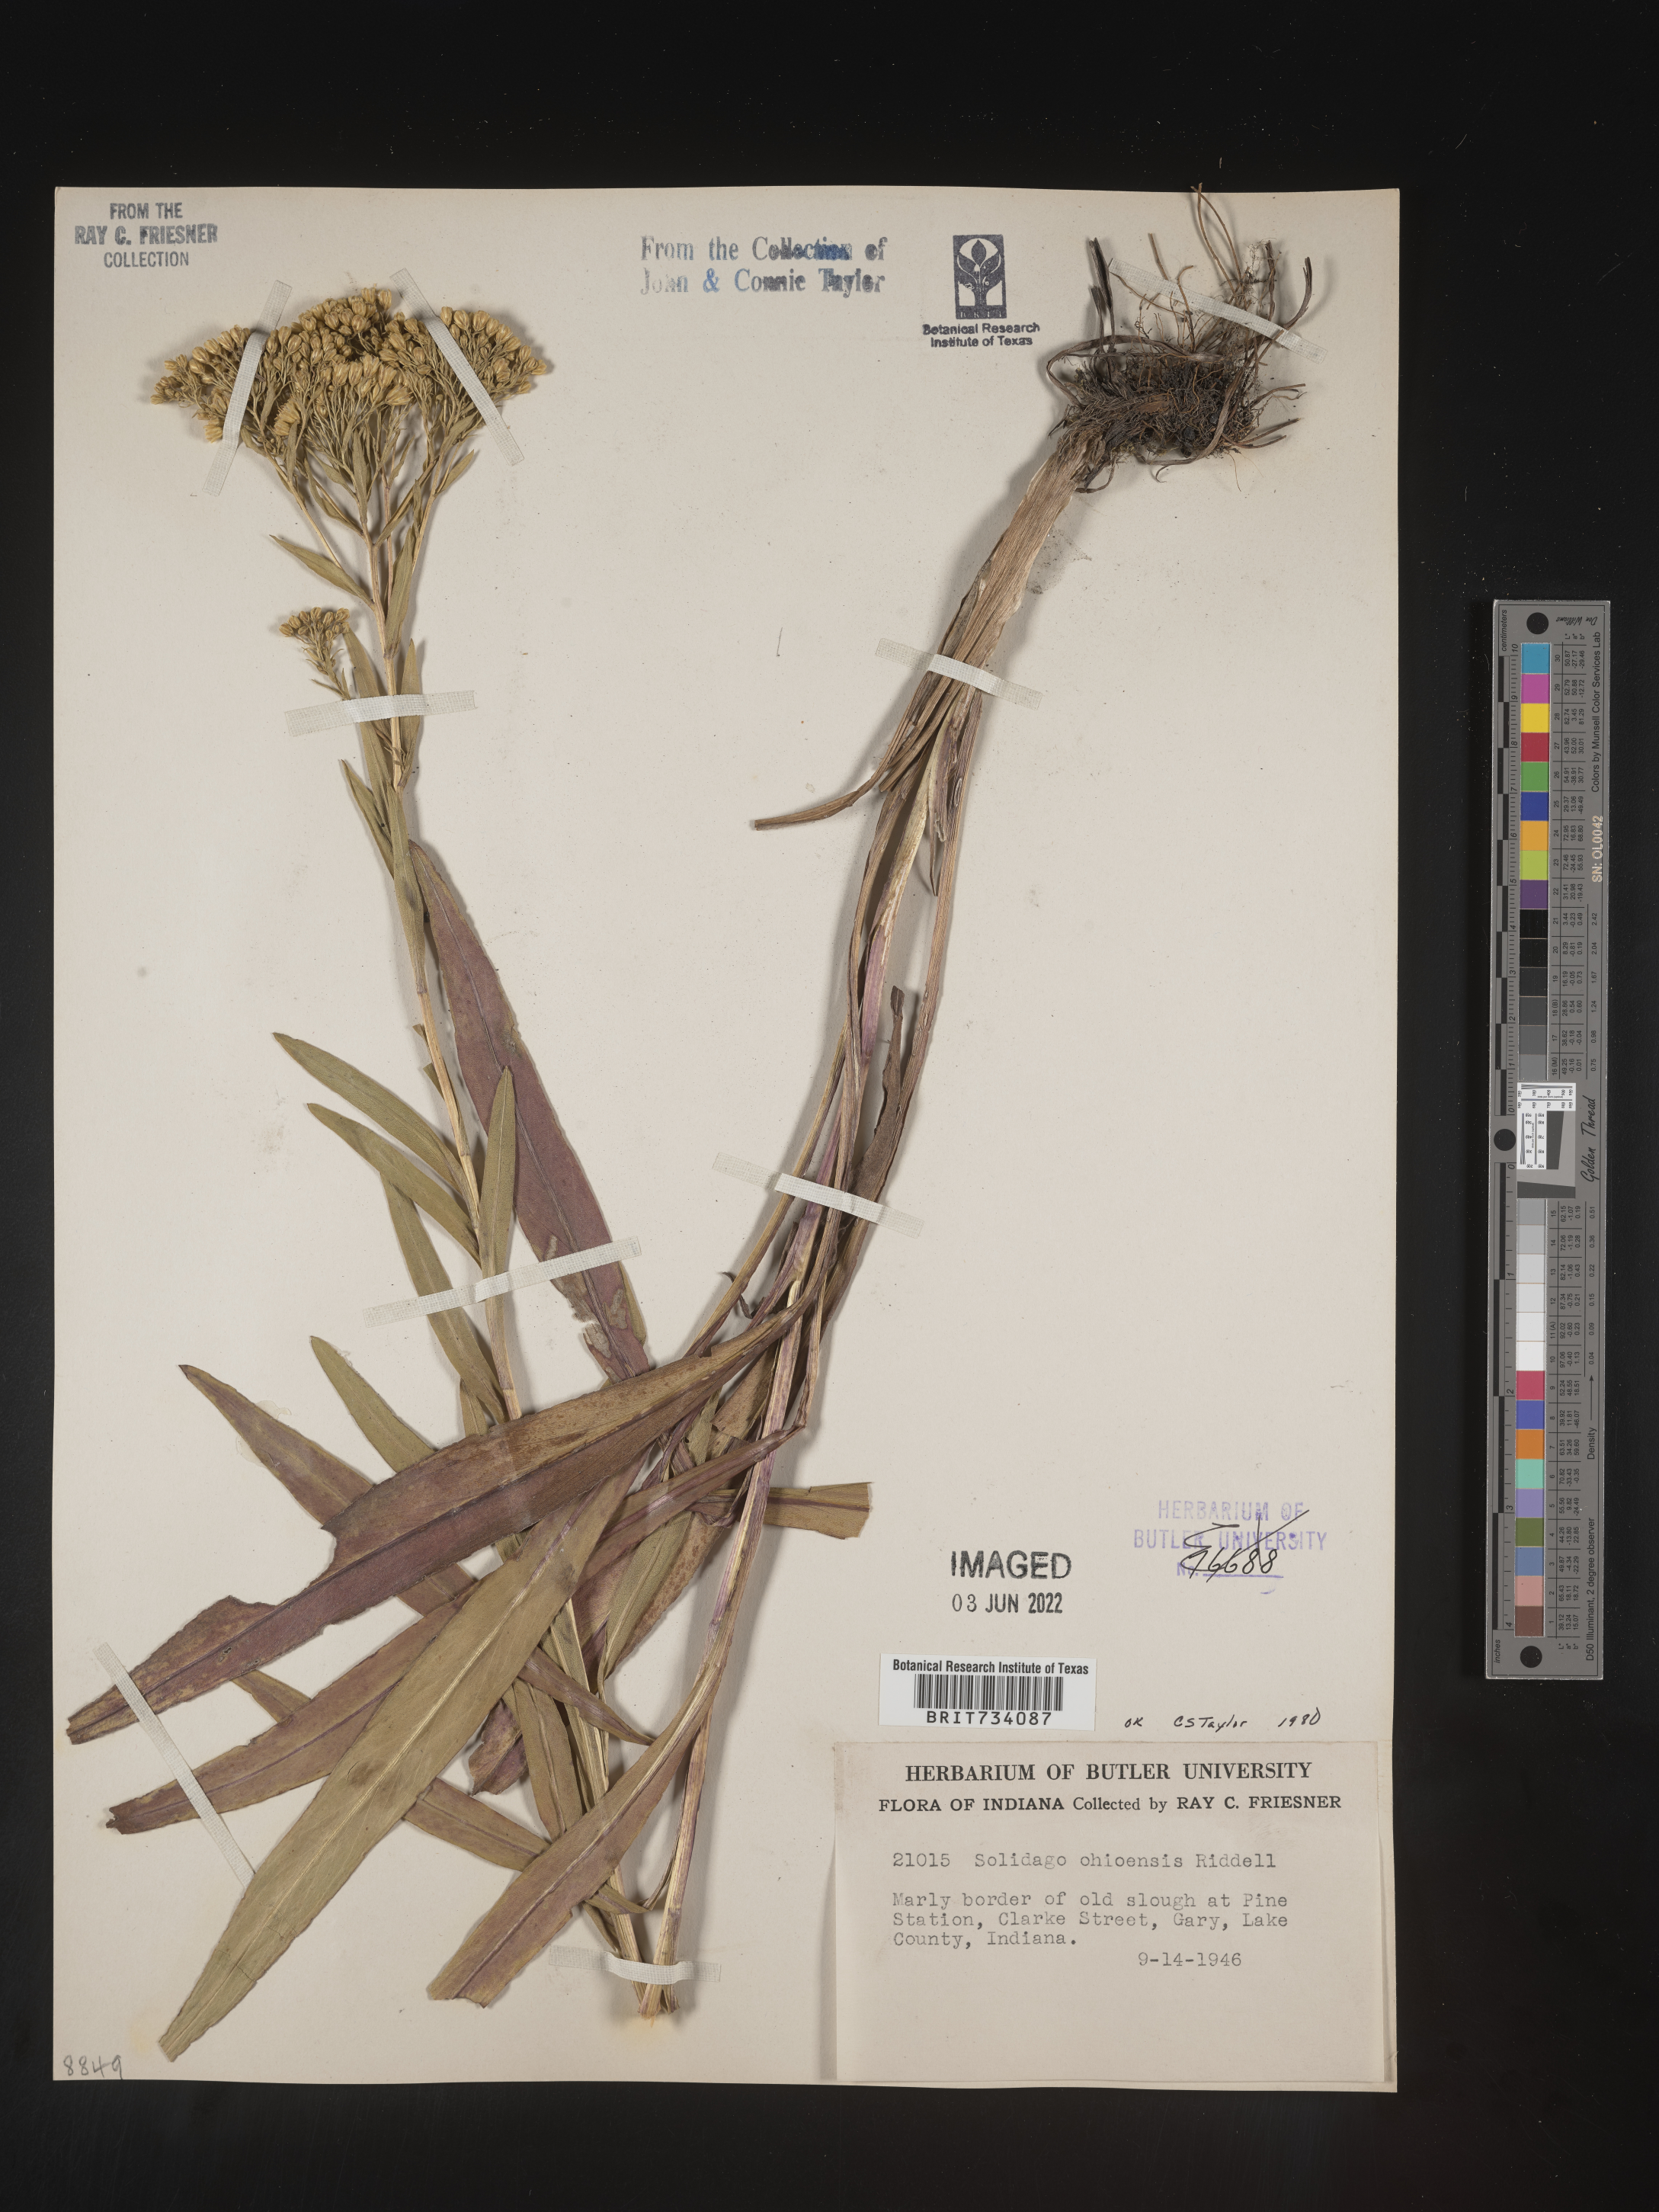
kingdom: Plantae
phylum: Tracheophyta
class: Magnoliopsida
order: Asterales
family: Asteraceae
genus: Solidago
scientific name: Solidago nitida
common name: Shiny goldenrod
